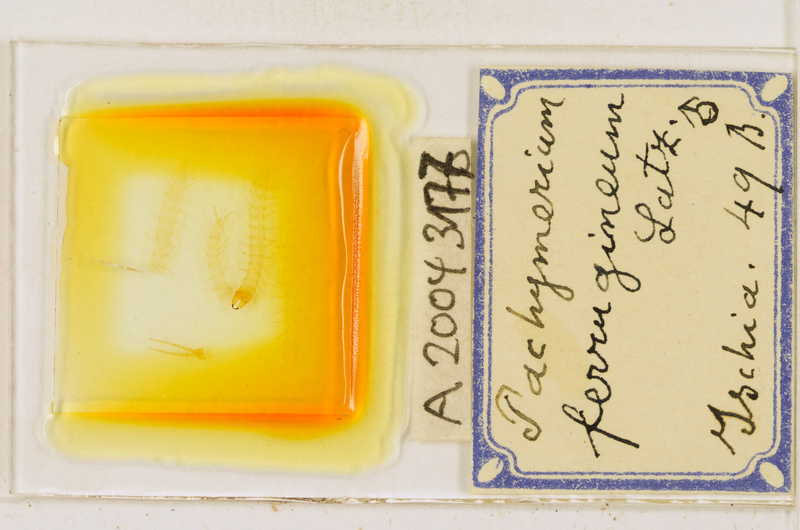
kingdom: Animalia
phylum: Arthropoda
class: Chilopoda
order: Geophilomorpha
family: Geophilidae
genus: Pachymerium
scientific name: Pachymerium ferrugineum
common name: Centipede
